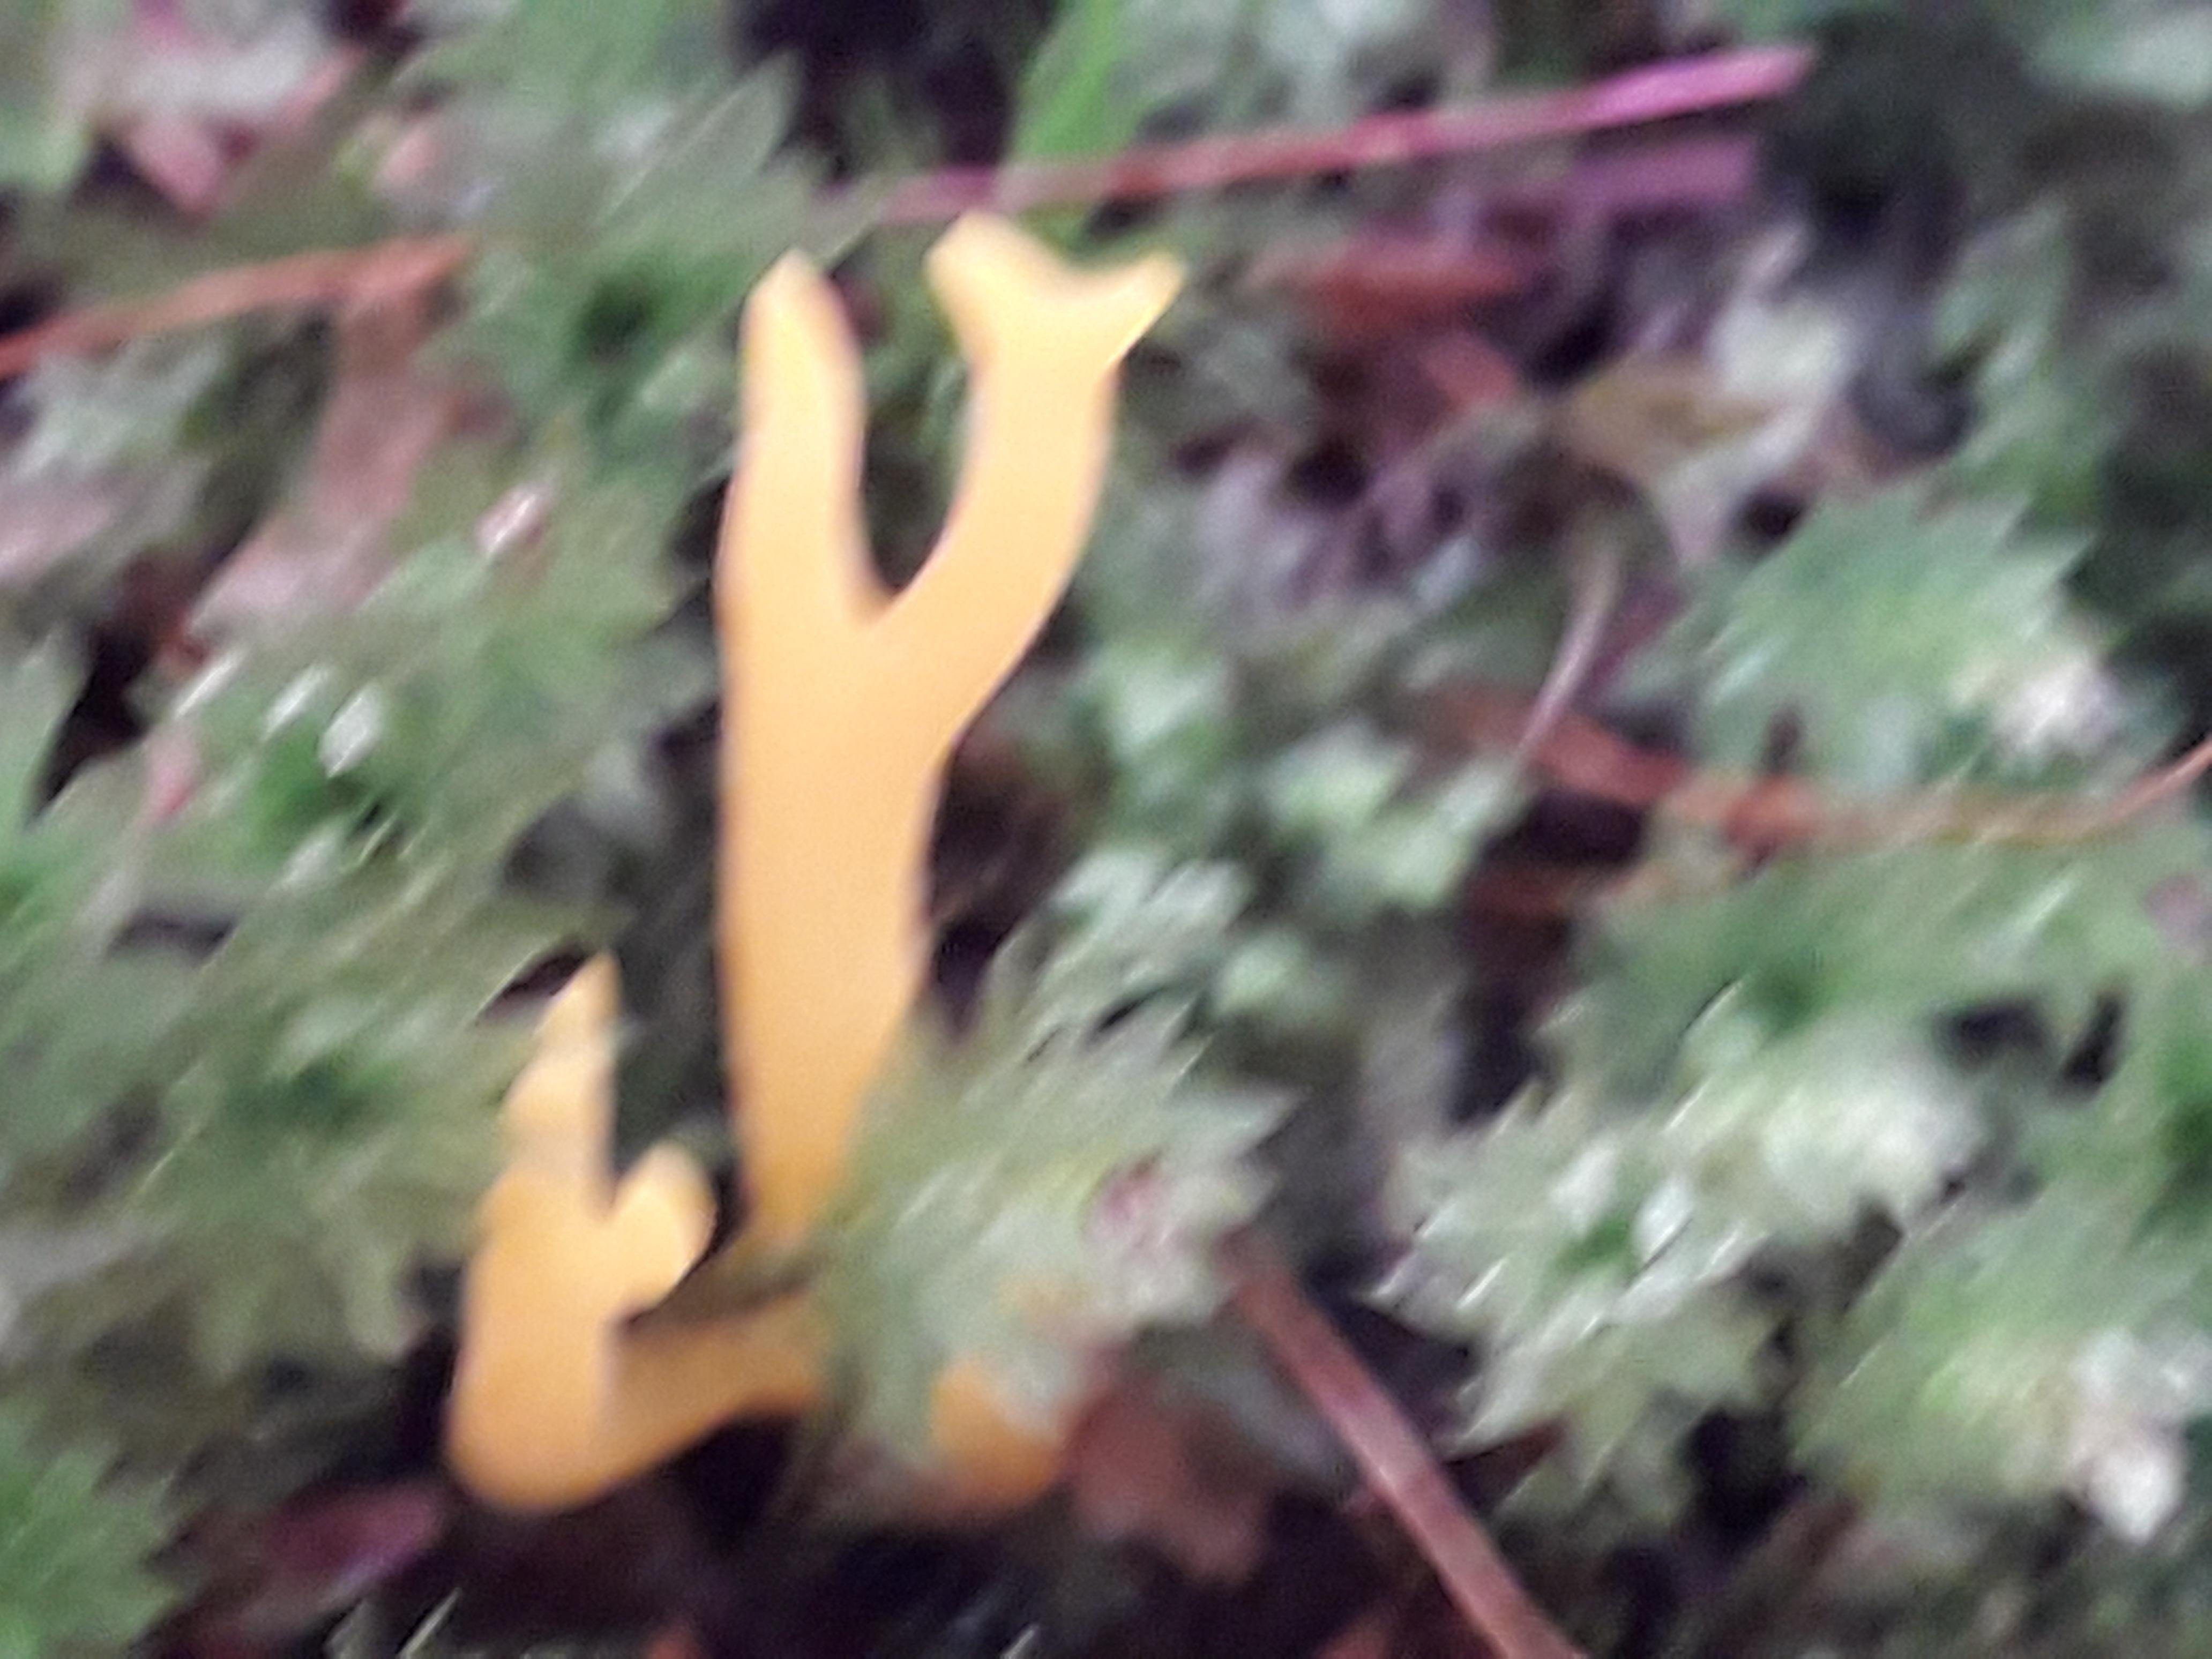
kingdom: Fungi
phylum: Basidiomycota
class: Dacrymycetes
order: Dacrymycetales
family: Dacrymycetaceae
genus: Calocera
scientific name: Calocera viscosa
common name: almindelig guldgaffel
